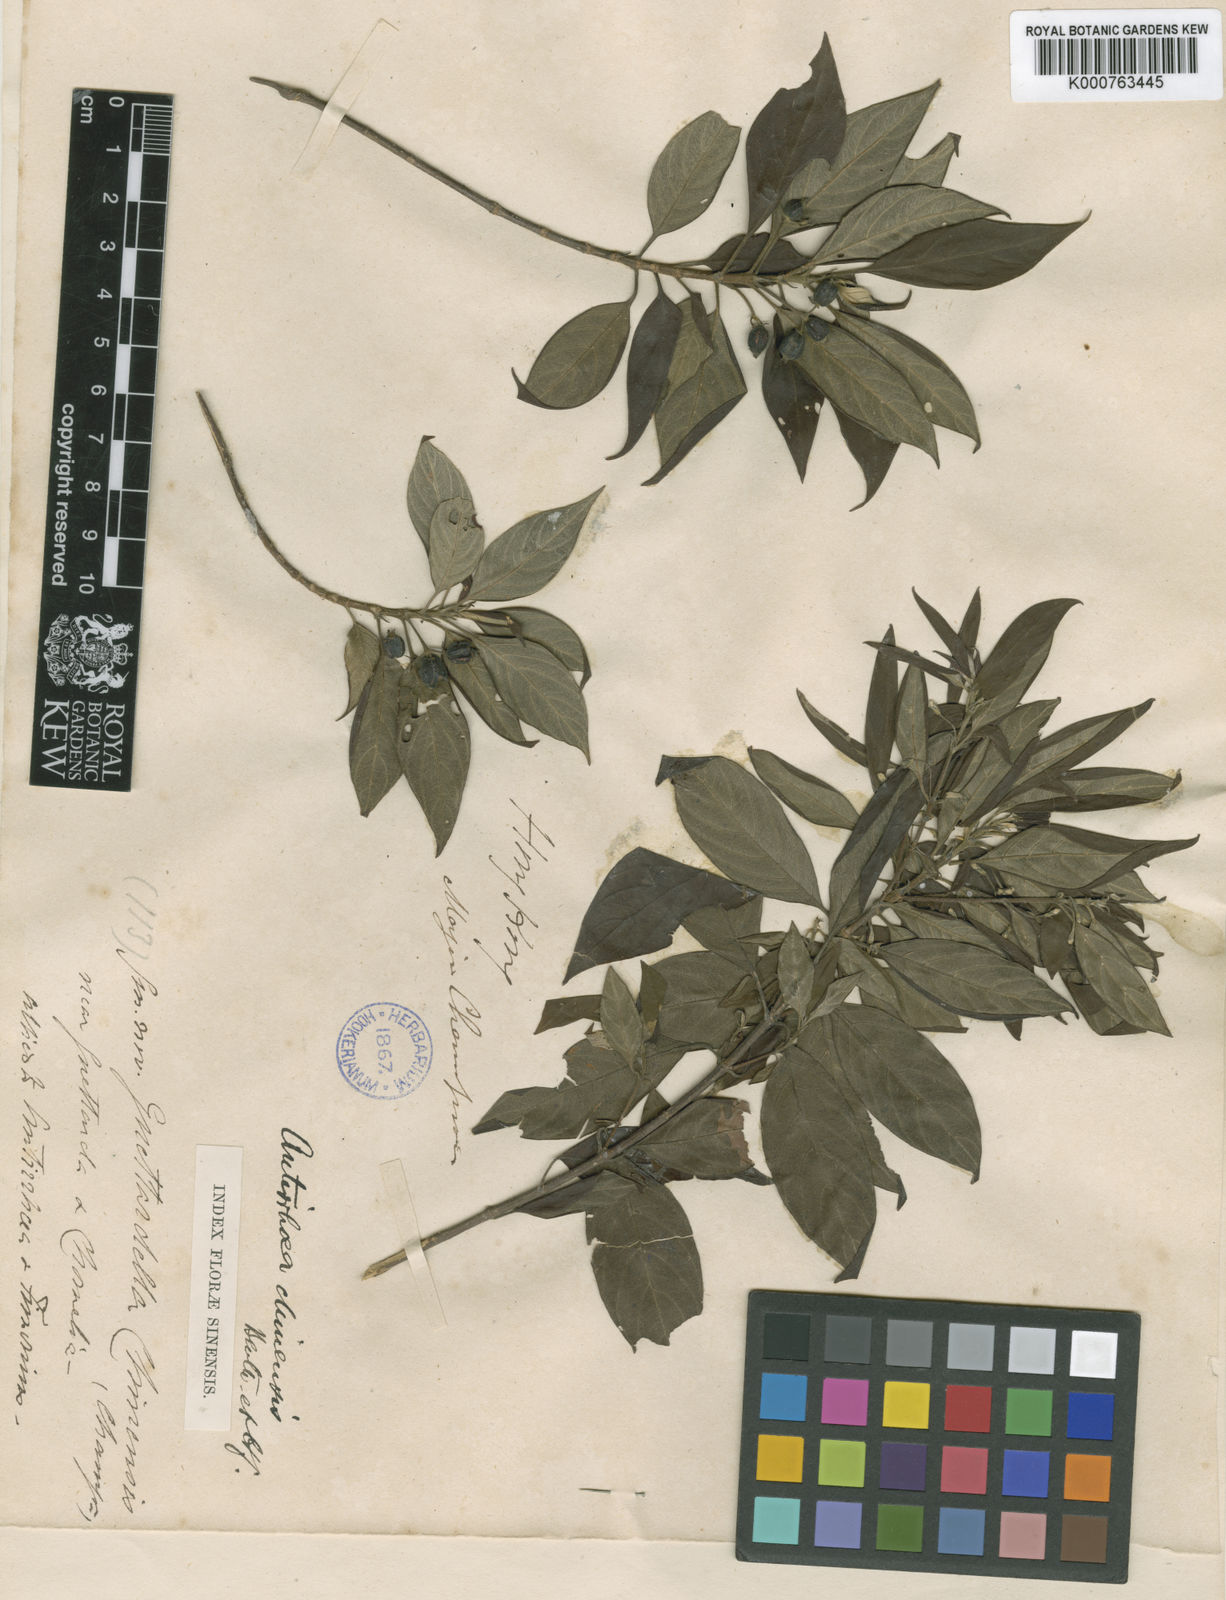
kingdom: Plantae
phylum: Tracheophyta
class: Magnoliopsida
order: Gentianales
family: Rubiaceae
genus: Guettardella
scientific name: Guettardella chinensis
